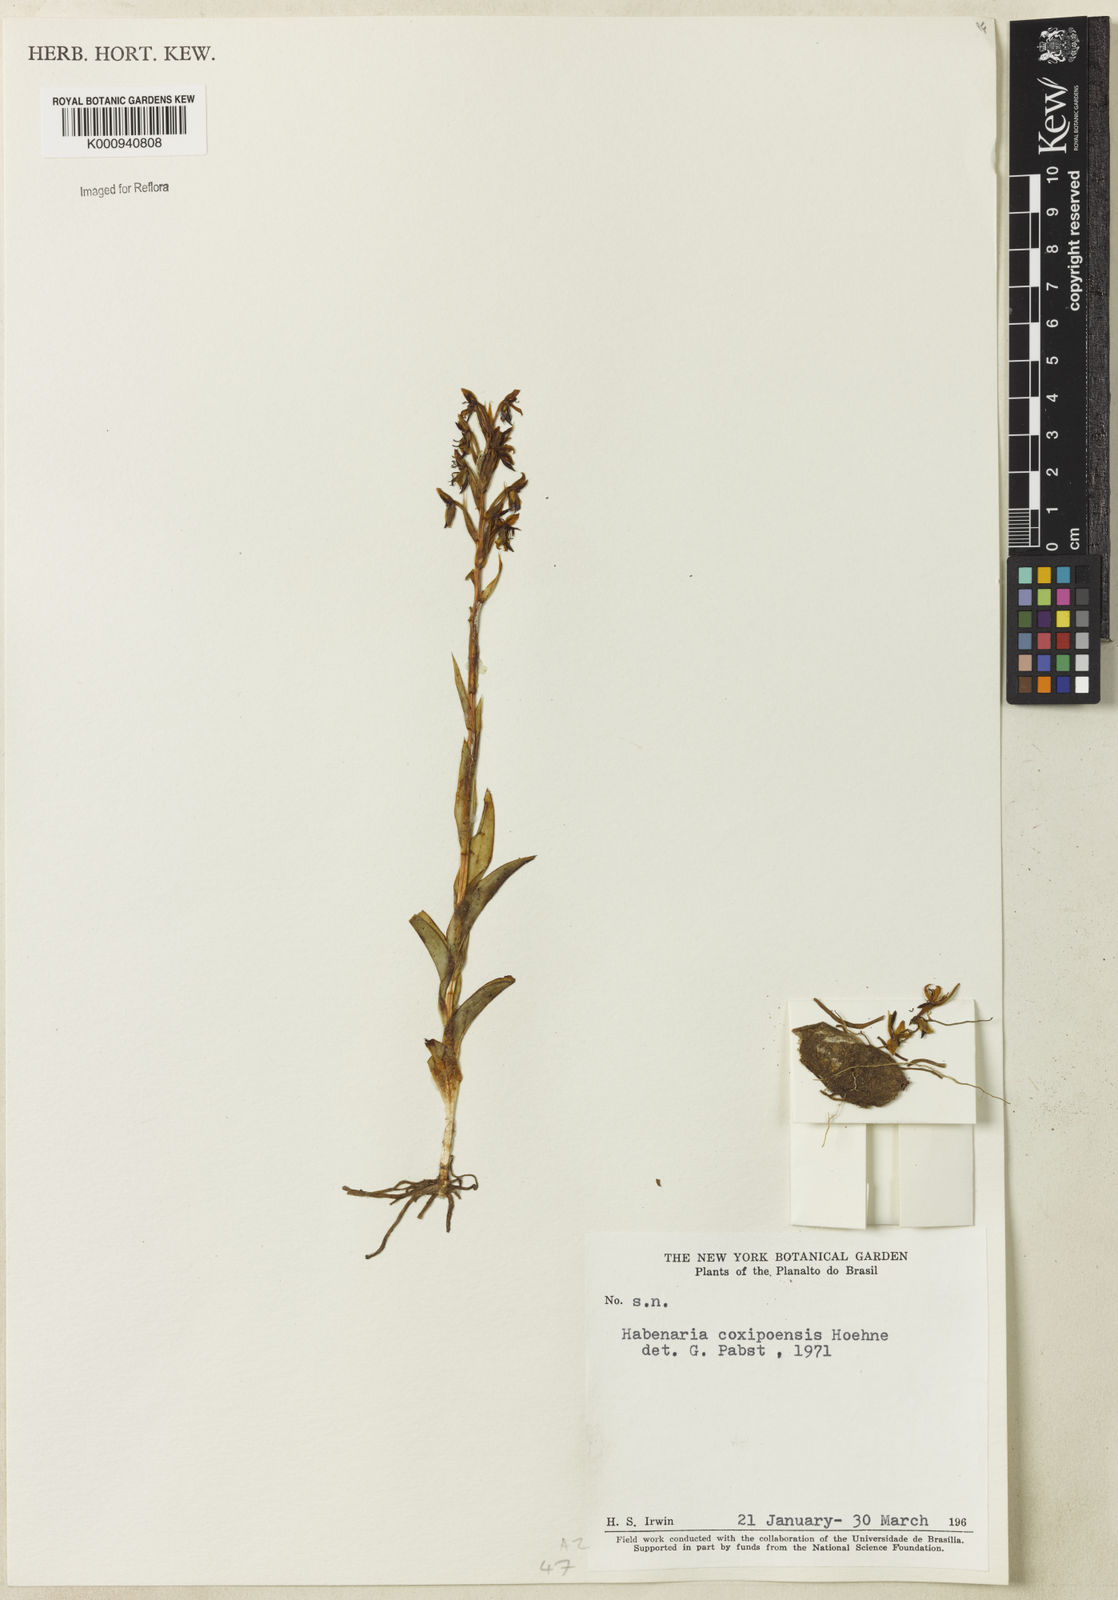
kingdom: Plantae
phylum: Tracheophyta
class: Liliopsida
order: Asparagales
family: Orchidaceae
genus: Habenaria
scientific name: Habenaria coxipoensis
